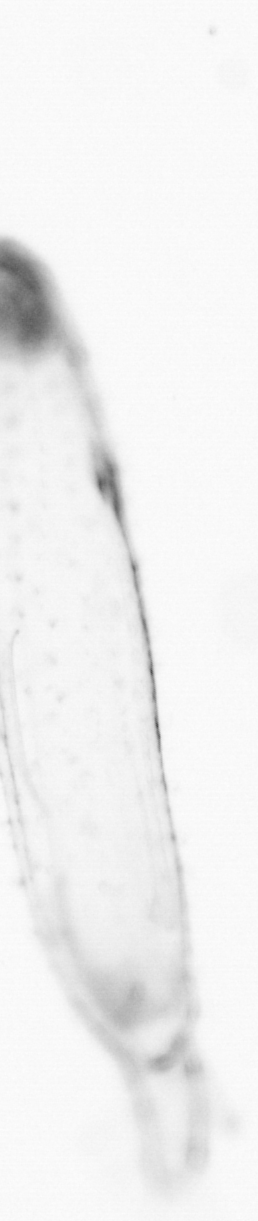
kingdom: Animalia
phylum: Chaetognatha
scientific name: Chaetognatha
